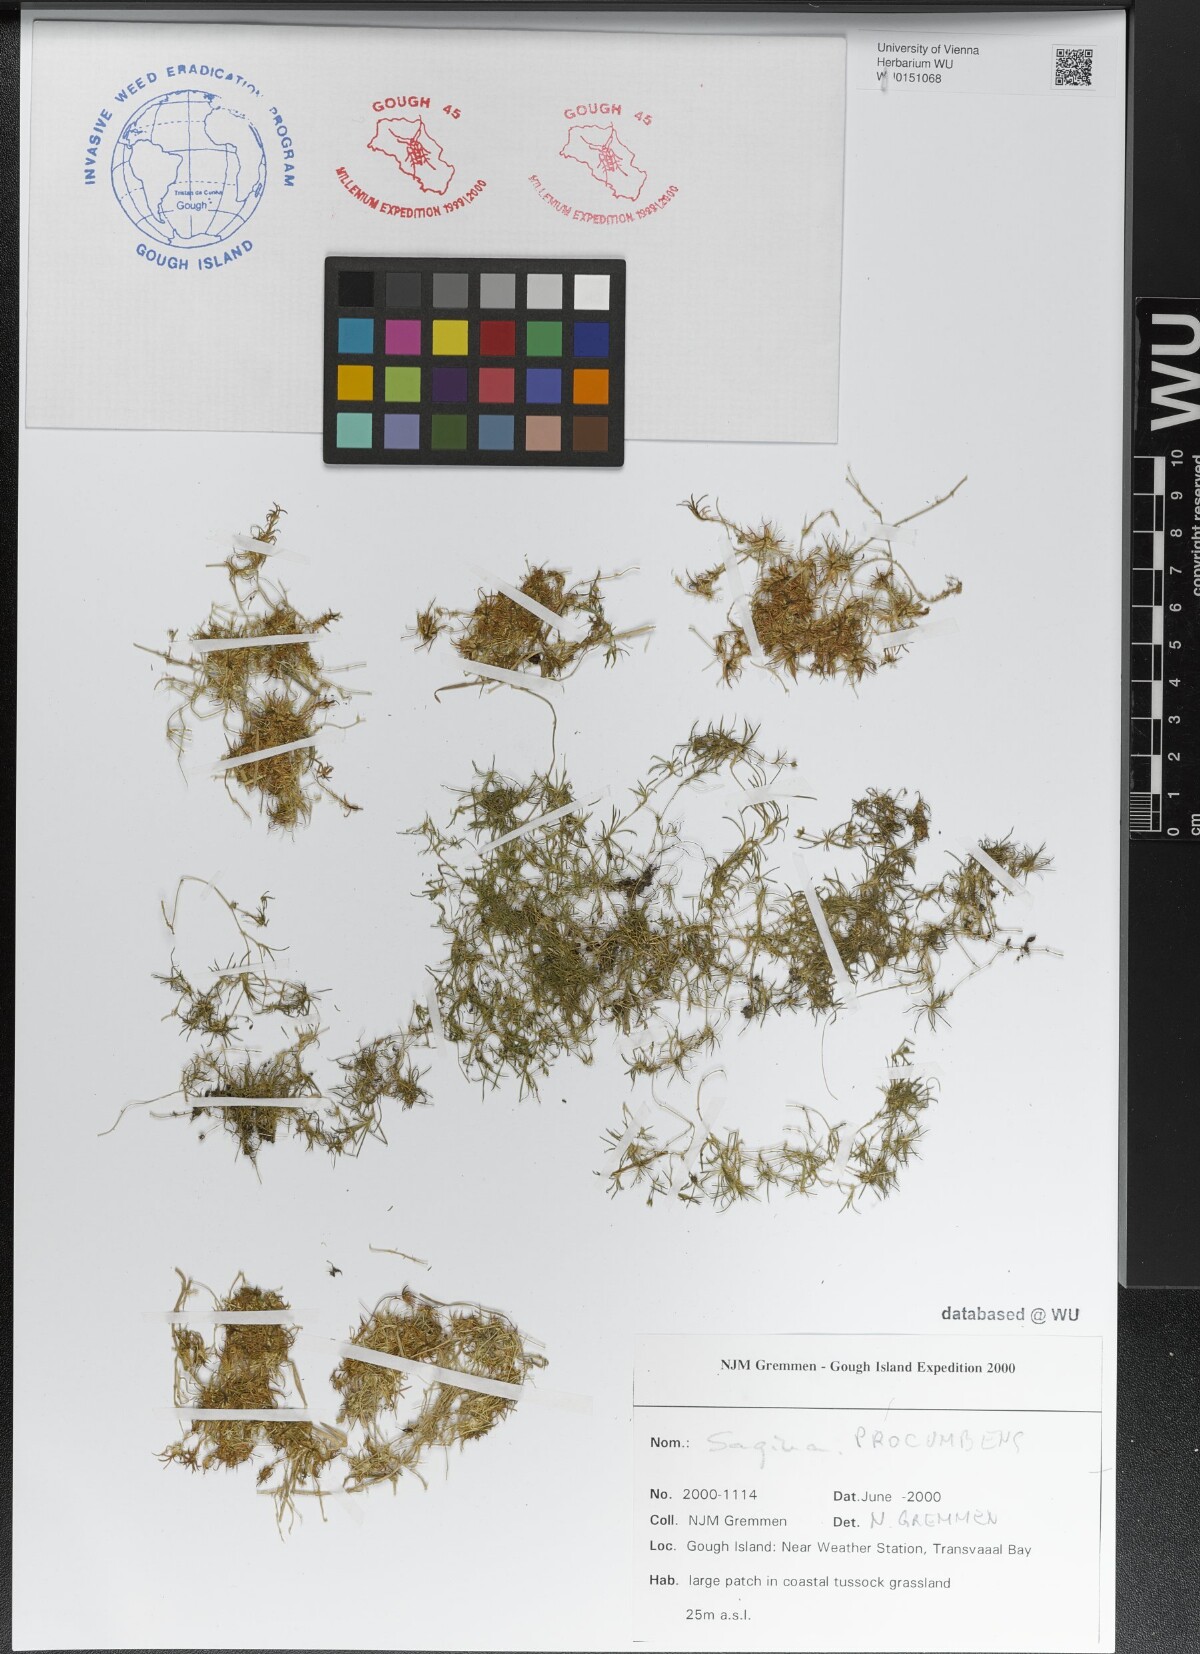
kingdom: Plantae
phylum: Tracheophyta
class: Magnoliopsida
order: Caryophyllales
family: Caryophyllaceae
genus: Sagina
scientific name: Sagina procumbens
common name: Procumbent pearlwort
